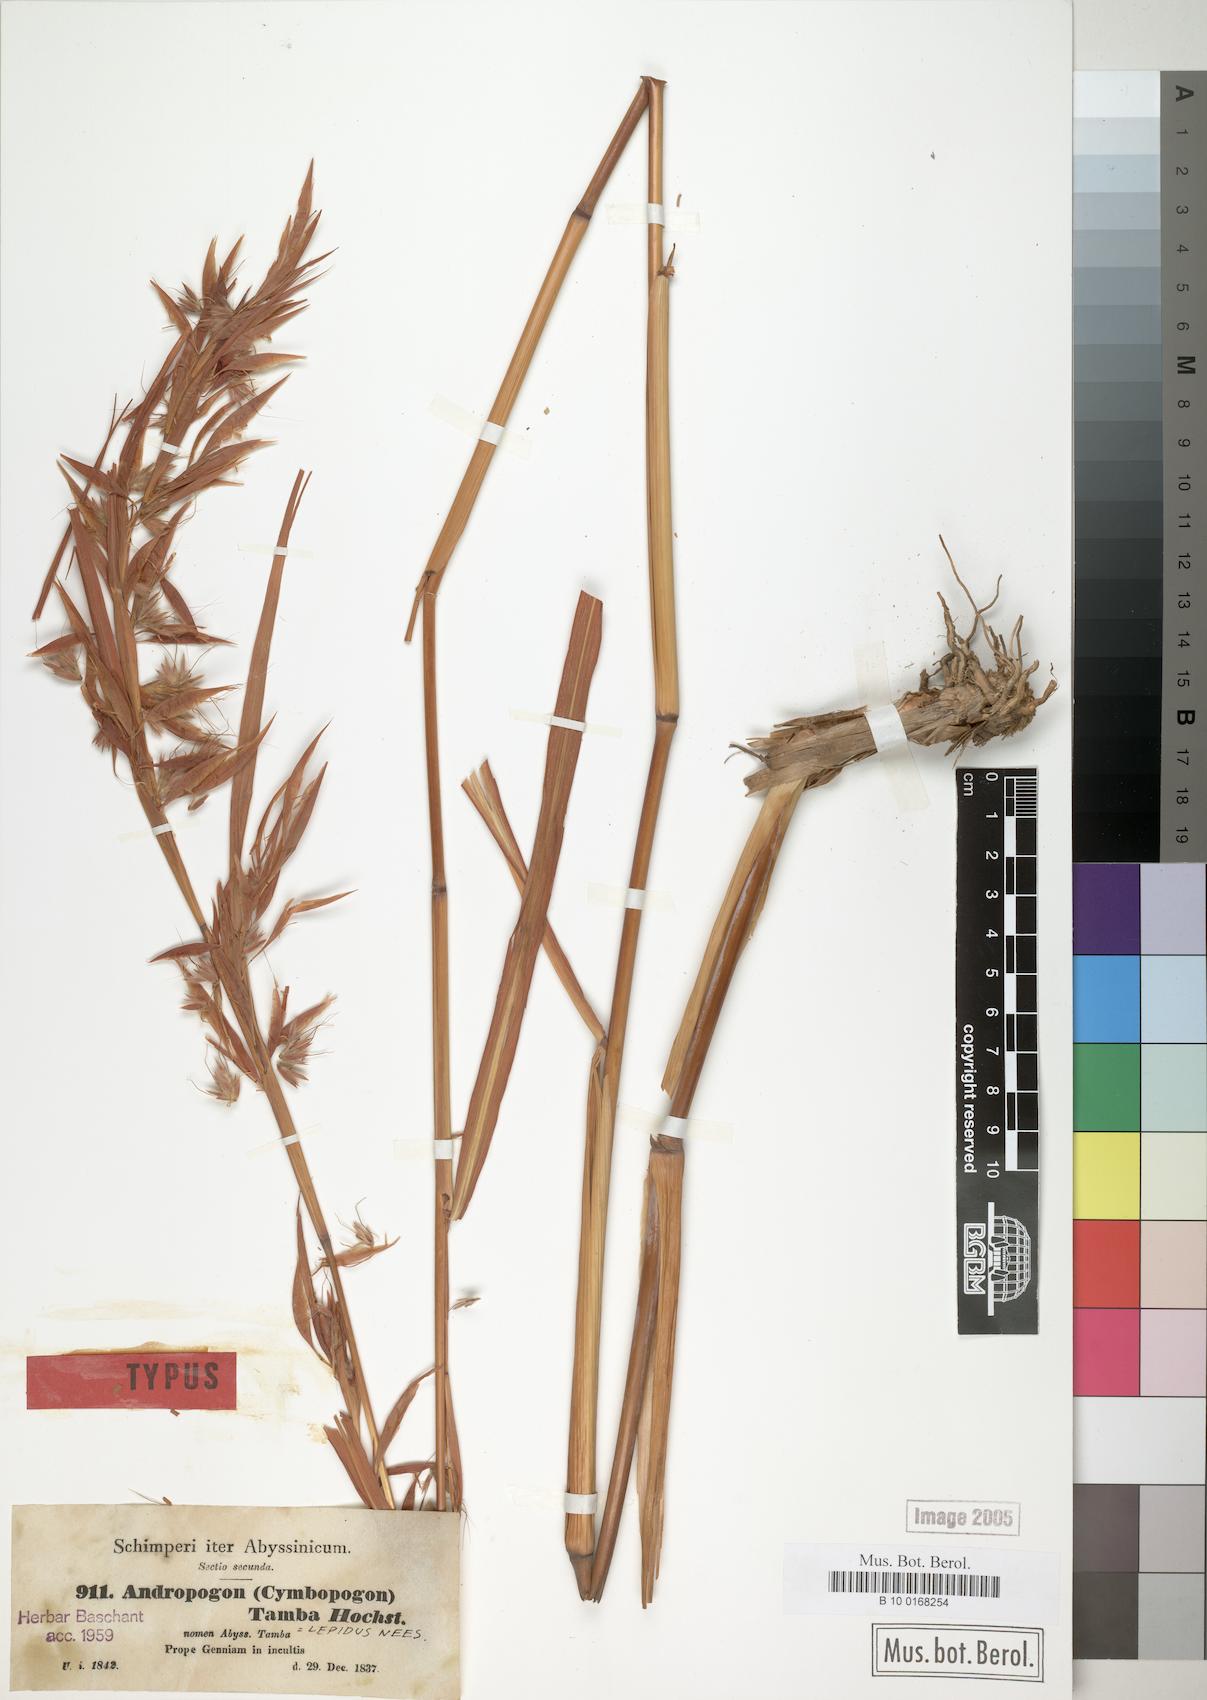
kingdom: Plantae
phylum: Tracheophyta
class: Liliopsida
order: Poales
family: Poaceae
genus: Andropogon
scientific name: Andropogon umbrosus
